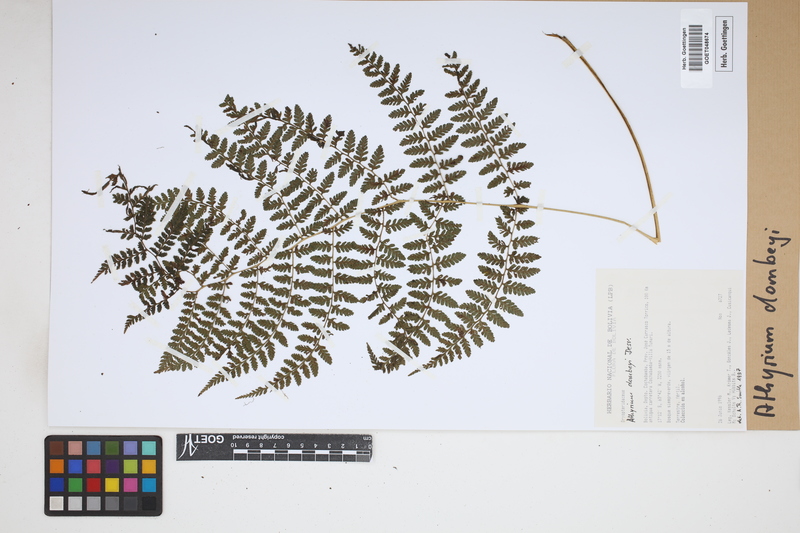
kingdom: Plantae
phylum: Tracheophyta
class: Polypodiopsida
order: Polypodiales
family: Athyriaceae
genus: Athyrium
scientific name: Athyrium dombeyi
